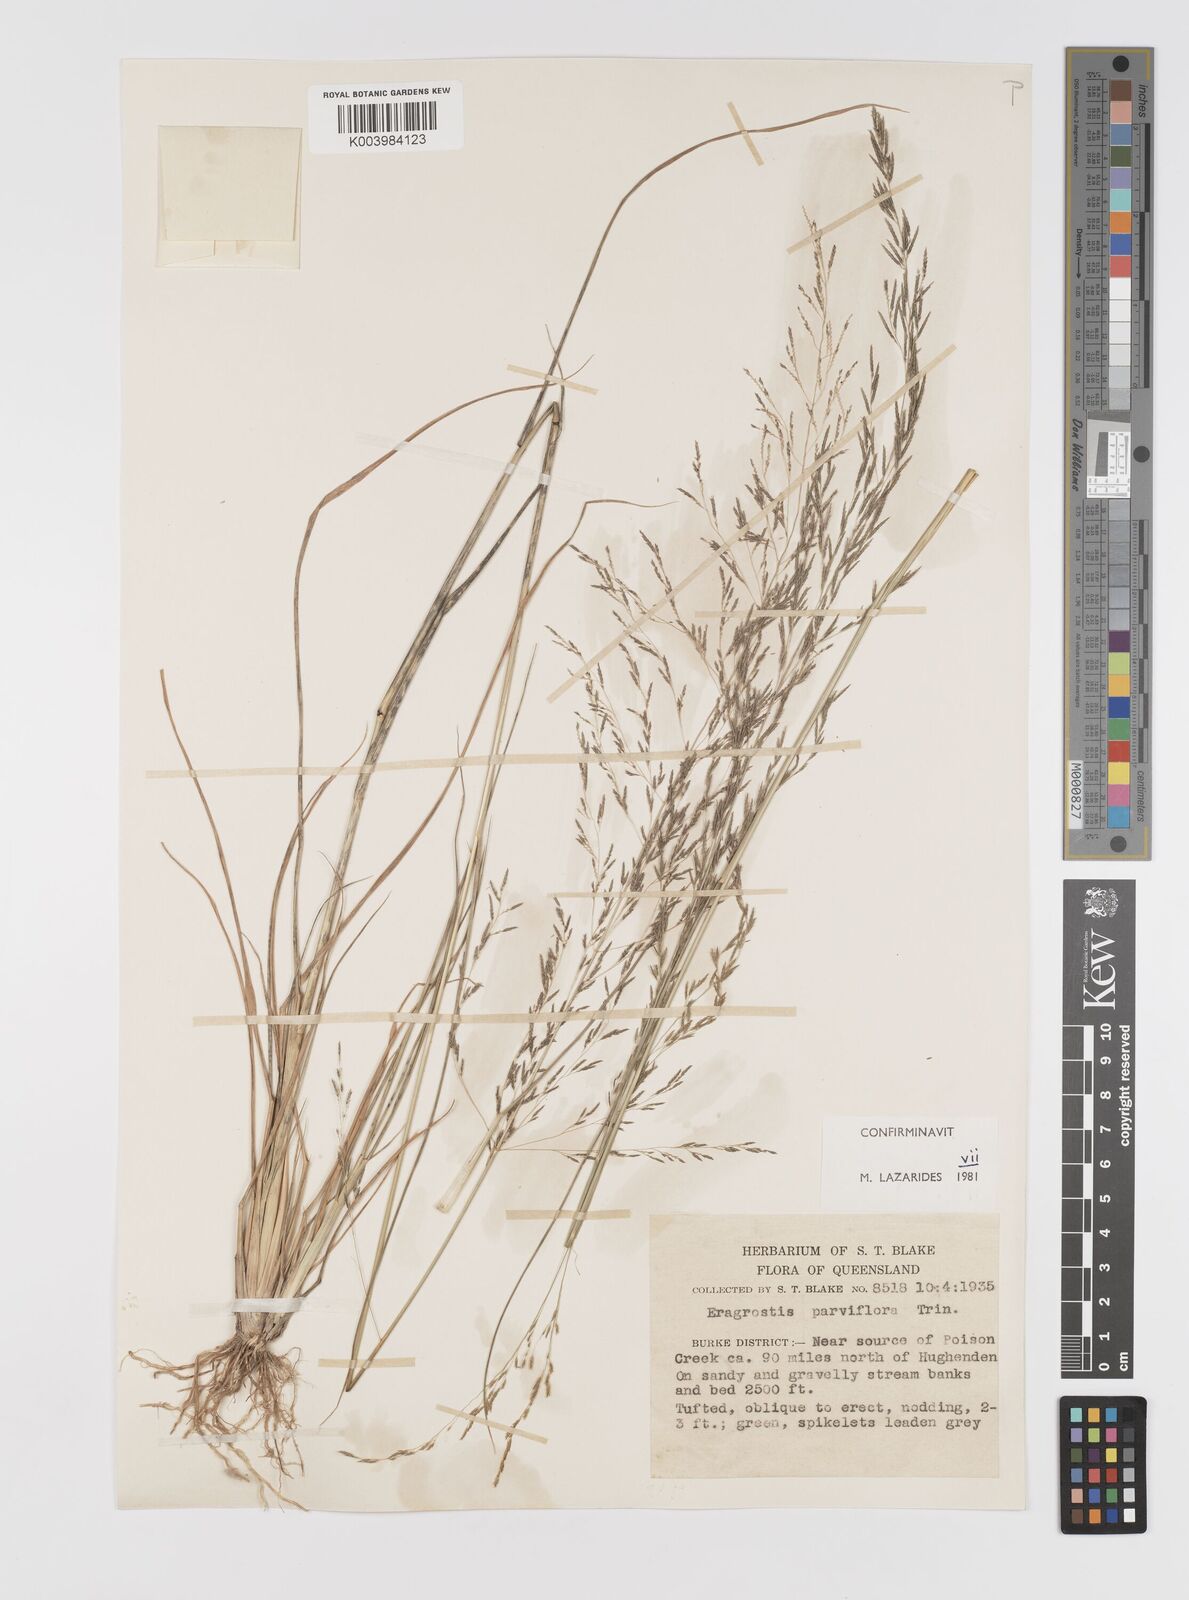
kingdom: Plantae
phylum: Tracheophyta
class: Liliopsida
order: Poales
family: Poaceae
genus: Eragrostis
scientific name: Eragrostis parviflora
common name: Weeping love-grass
